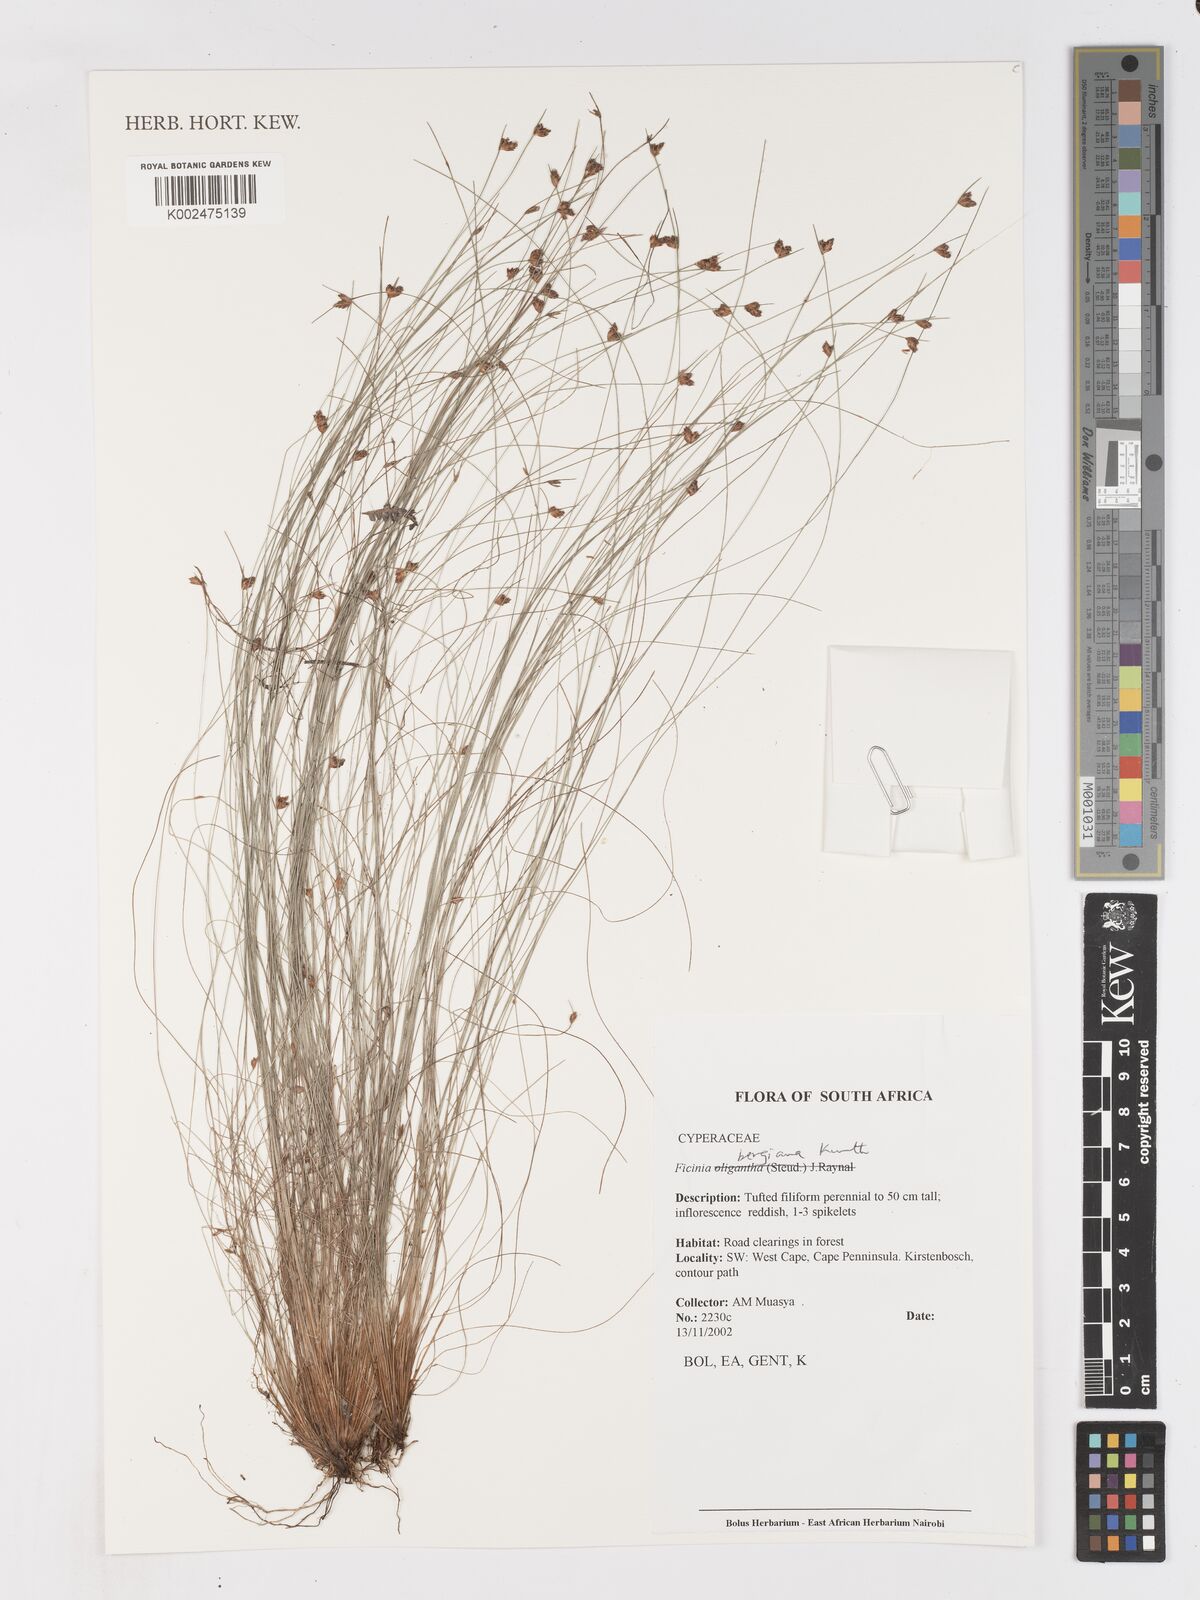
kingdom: Plantae
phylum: Tracheophyta
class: Liliopsida
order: Poales
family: Cyperaceae
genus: Ficinia
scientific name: Ficinia tristachya
